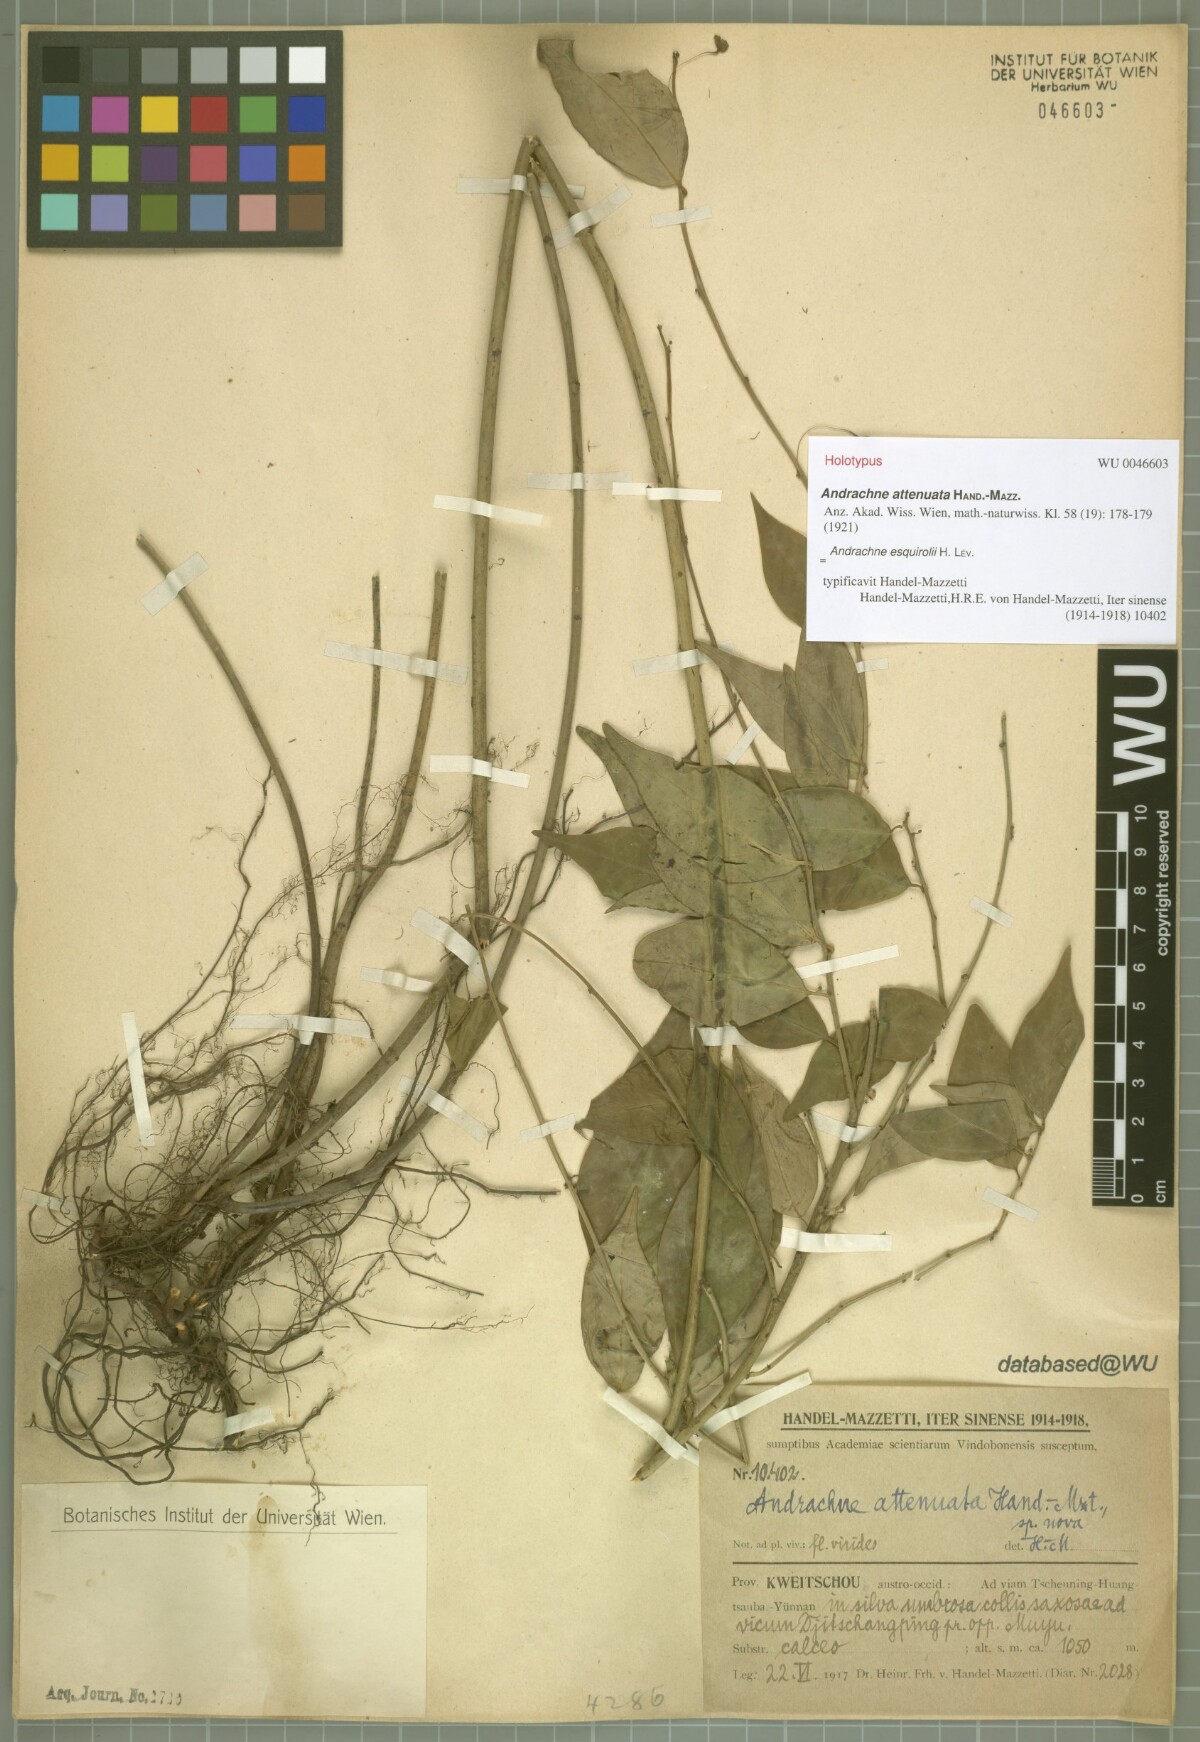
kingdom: Plantae
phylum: Tracheophyta
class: Magnoliopsida
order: Malpighiales
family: Phyllanthaceae
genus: Leptopus
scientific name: Leptopus clarkei
